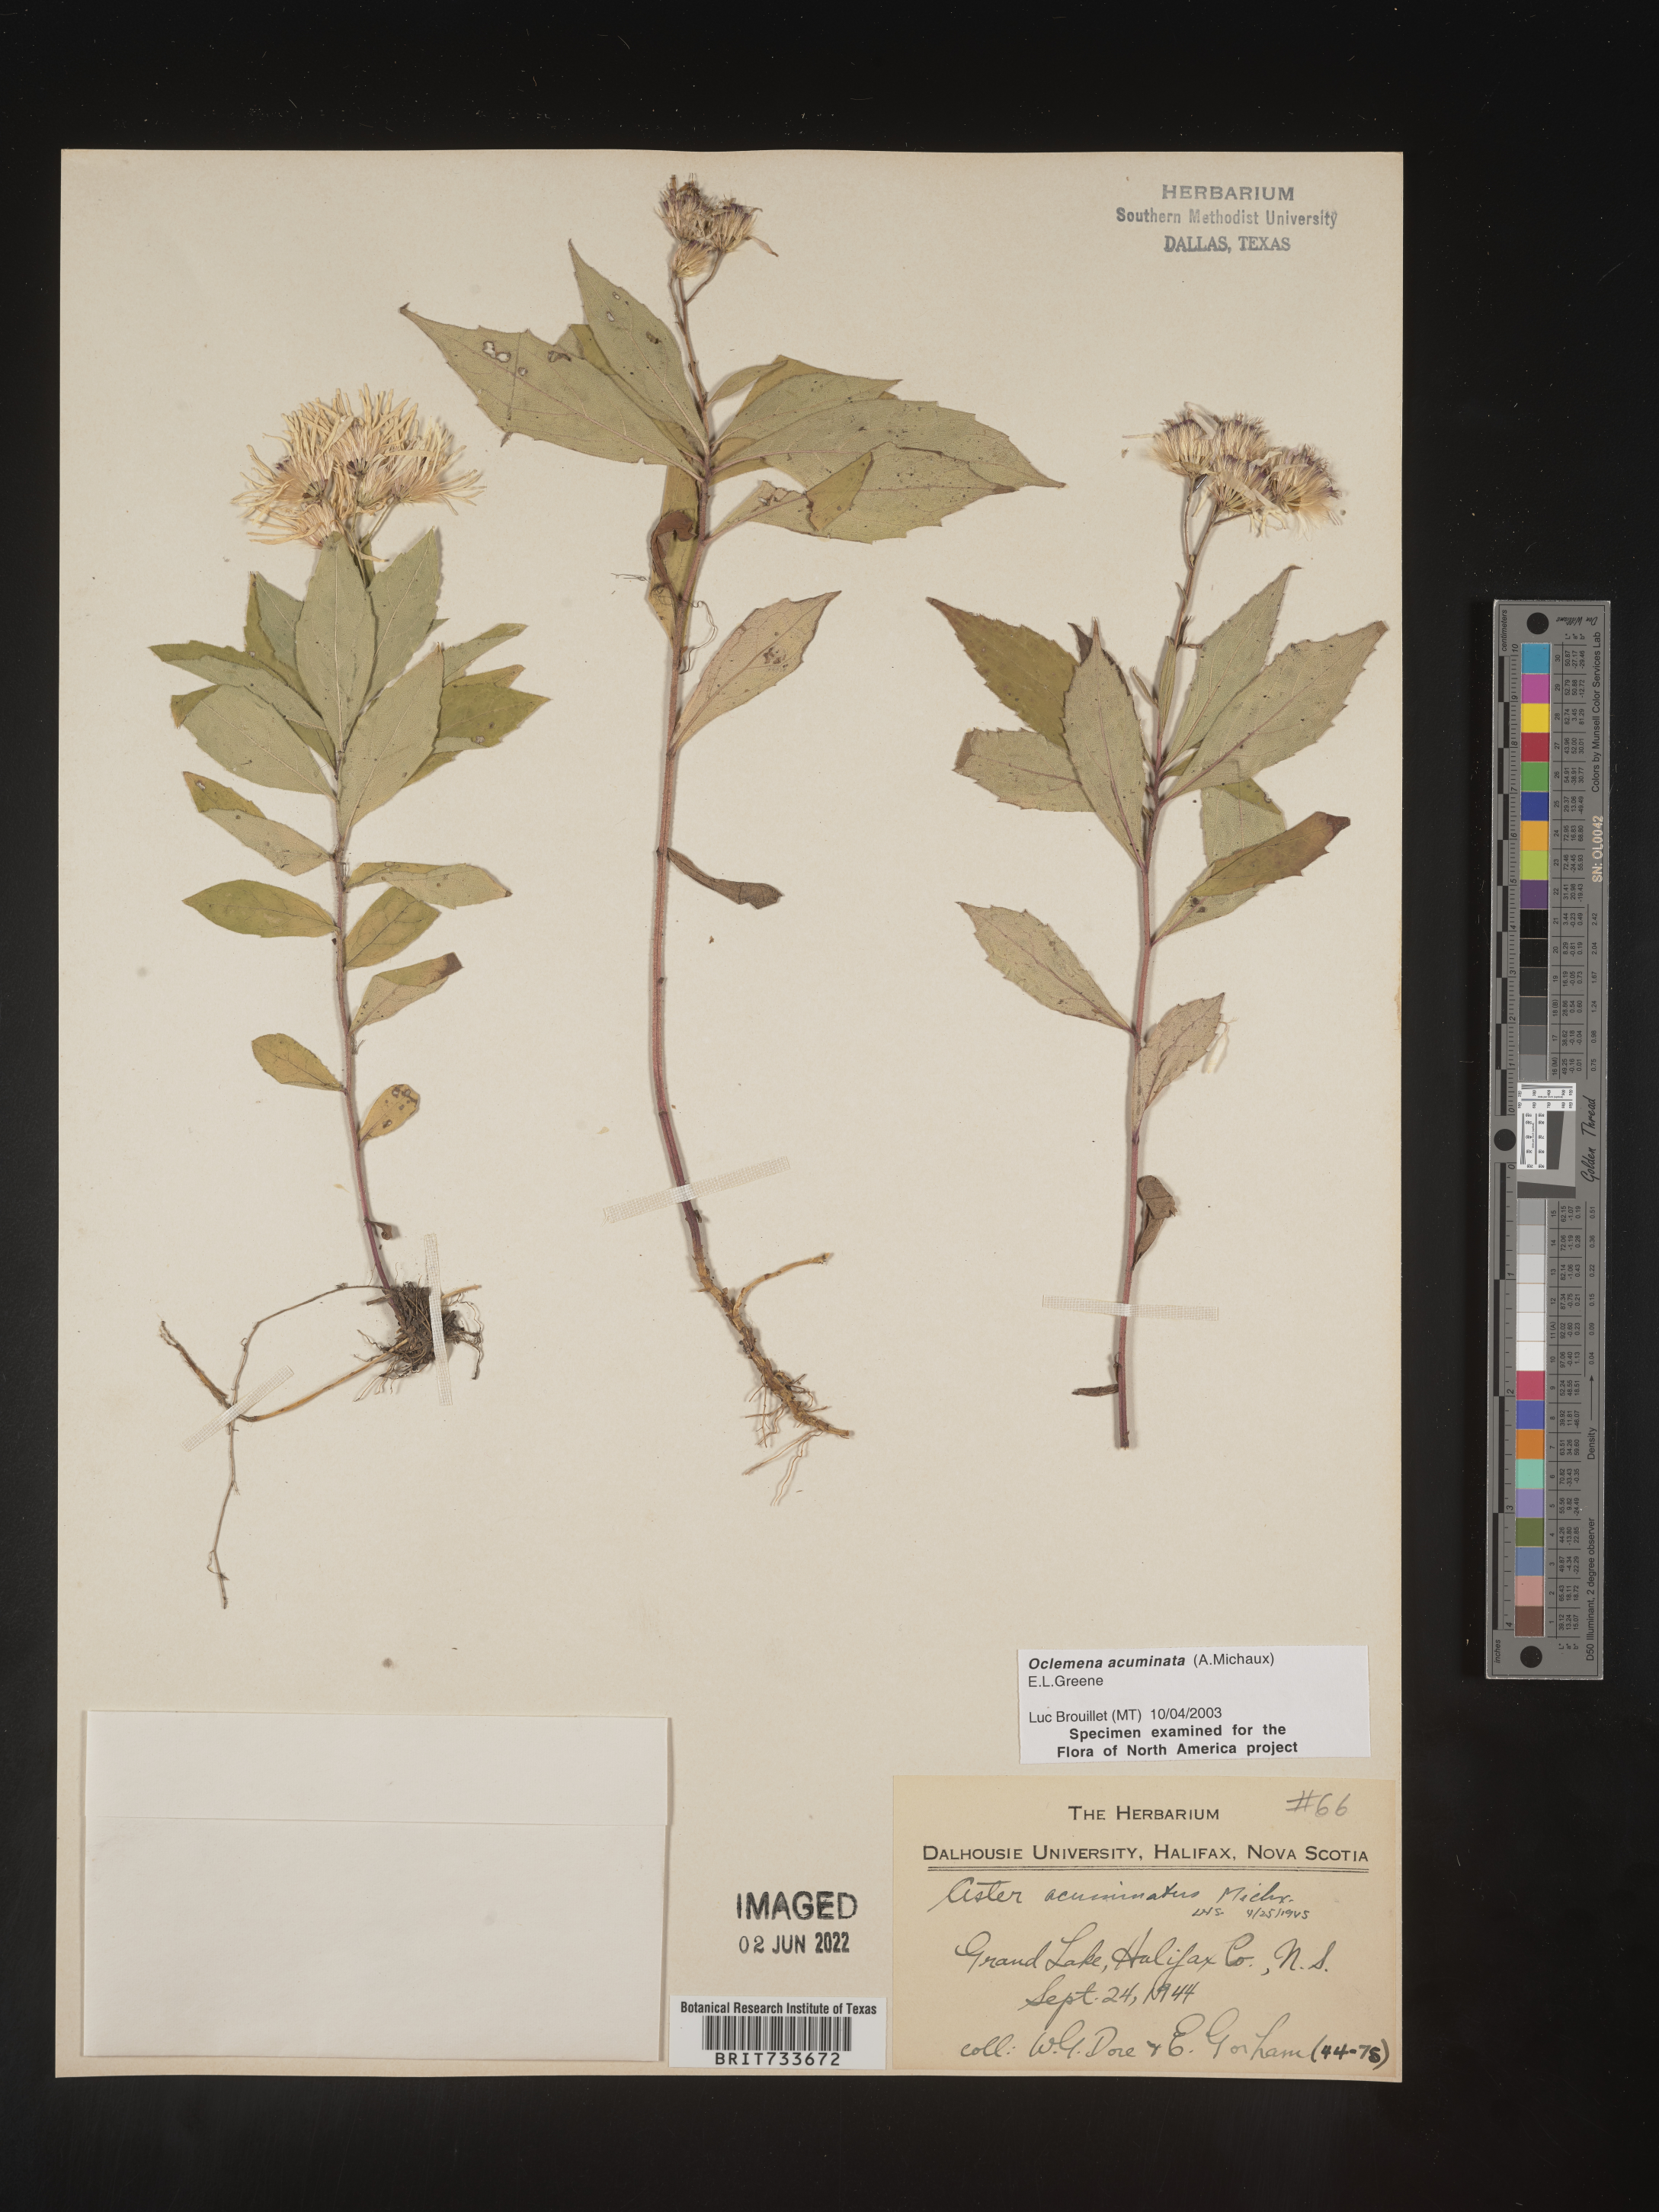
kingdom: Plantae
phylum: Tracheophyta
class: Magnoliopsida
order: Asterales
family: Asteraceae
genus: Oclemena
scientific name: Oclemena acuminata
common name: Mountain aster
